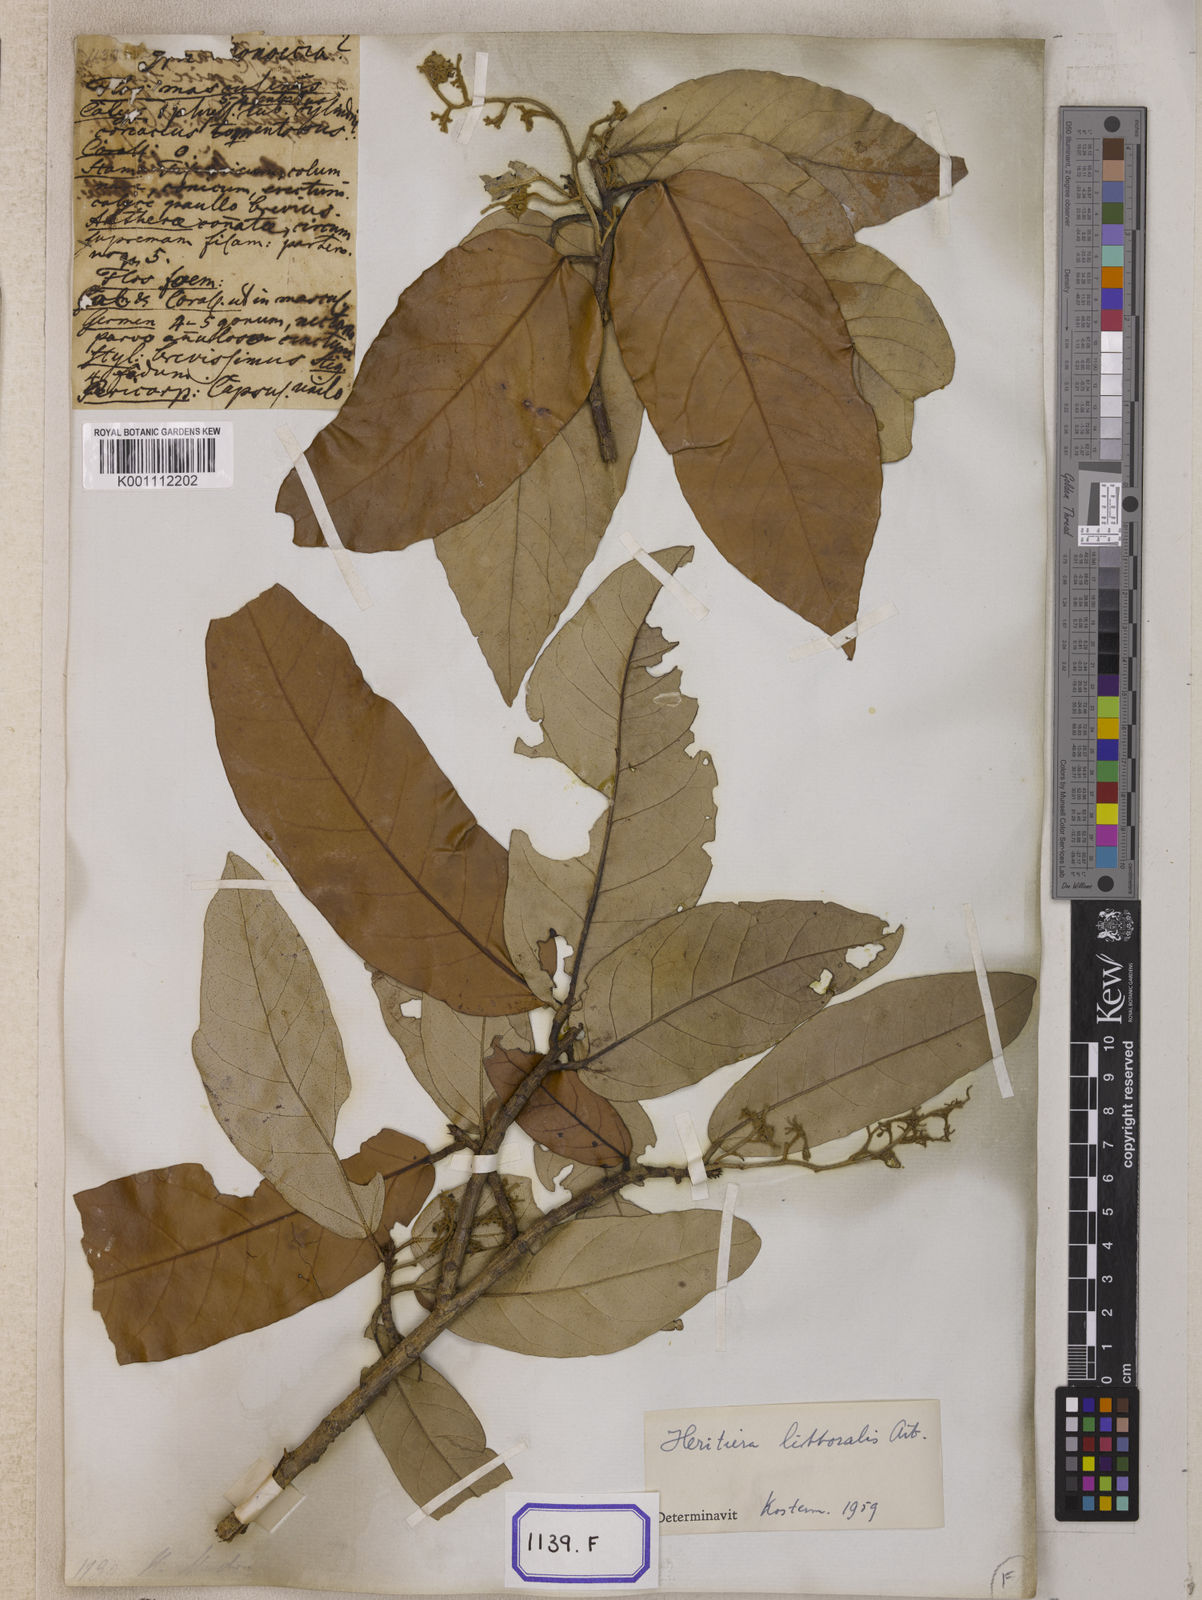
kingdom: Plantae
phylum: Tracheophyta
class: Magnoliopsida
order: Malvales
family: Malvaceae
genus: Heritiera
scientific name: Heritiera
